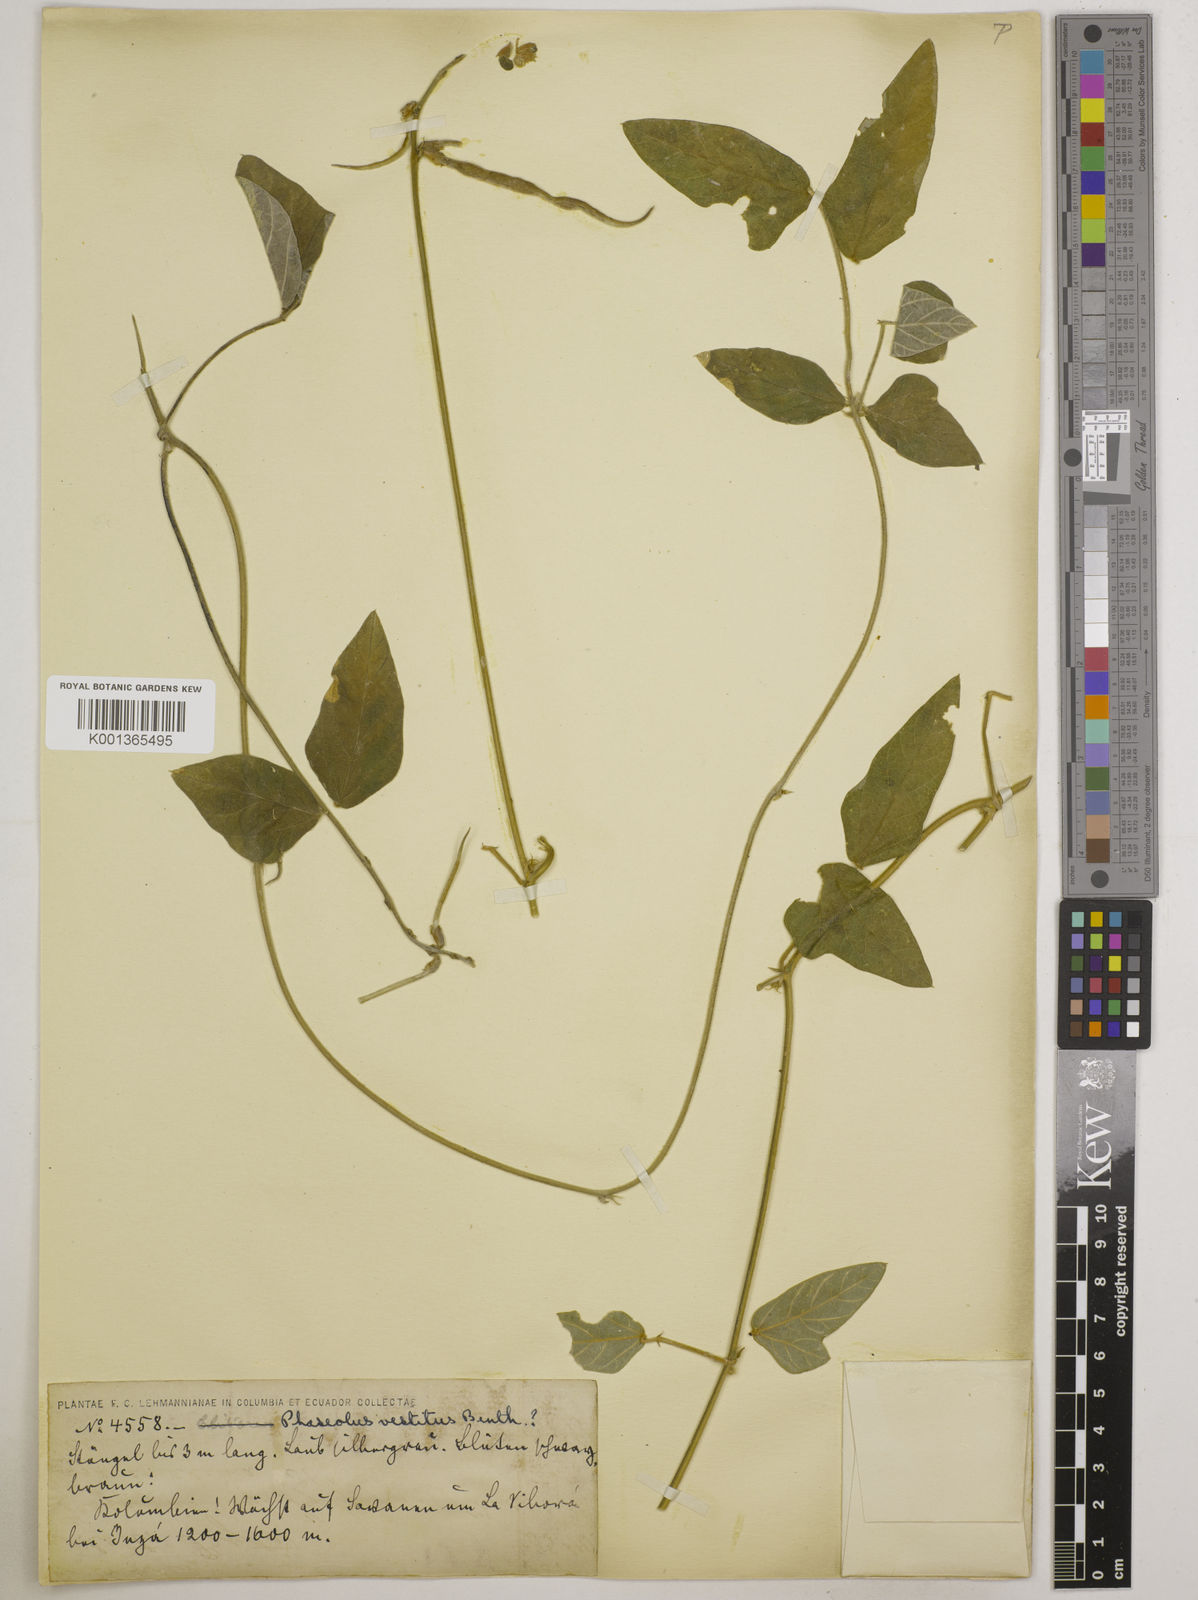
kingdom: Plantae
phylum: Tracheophyta
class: Magnoliopsida
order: Fabales
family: Fabaceae
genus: Macroptilium
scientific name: Macroptilium atropurpureum
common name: Purple bushbean
